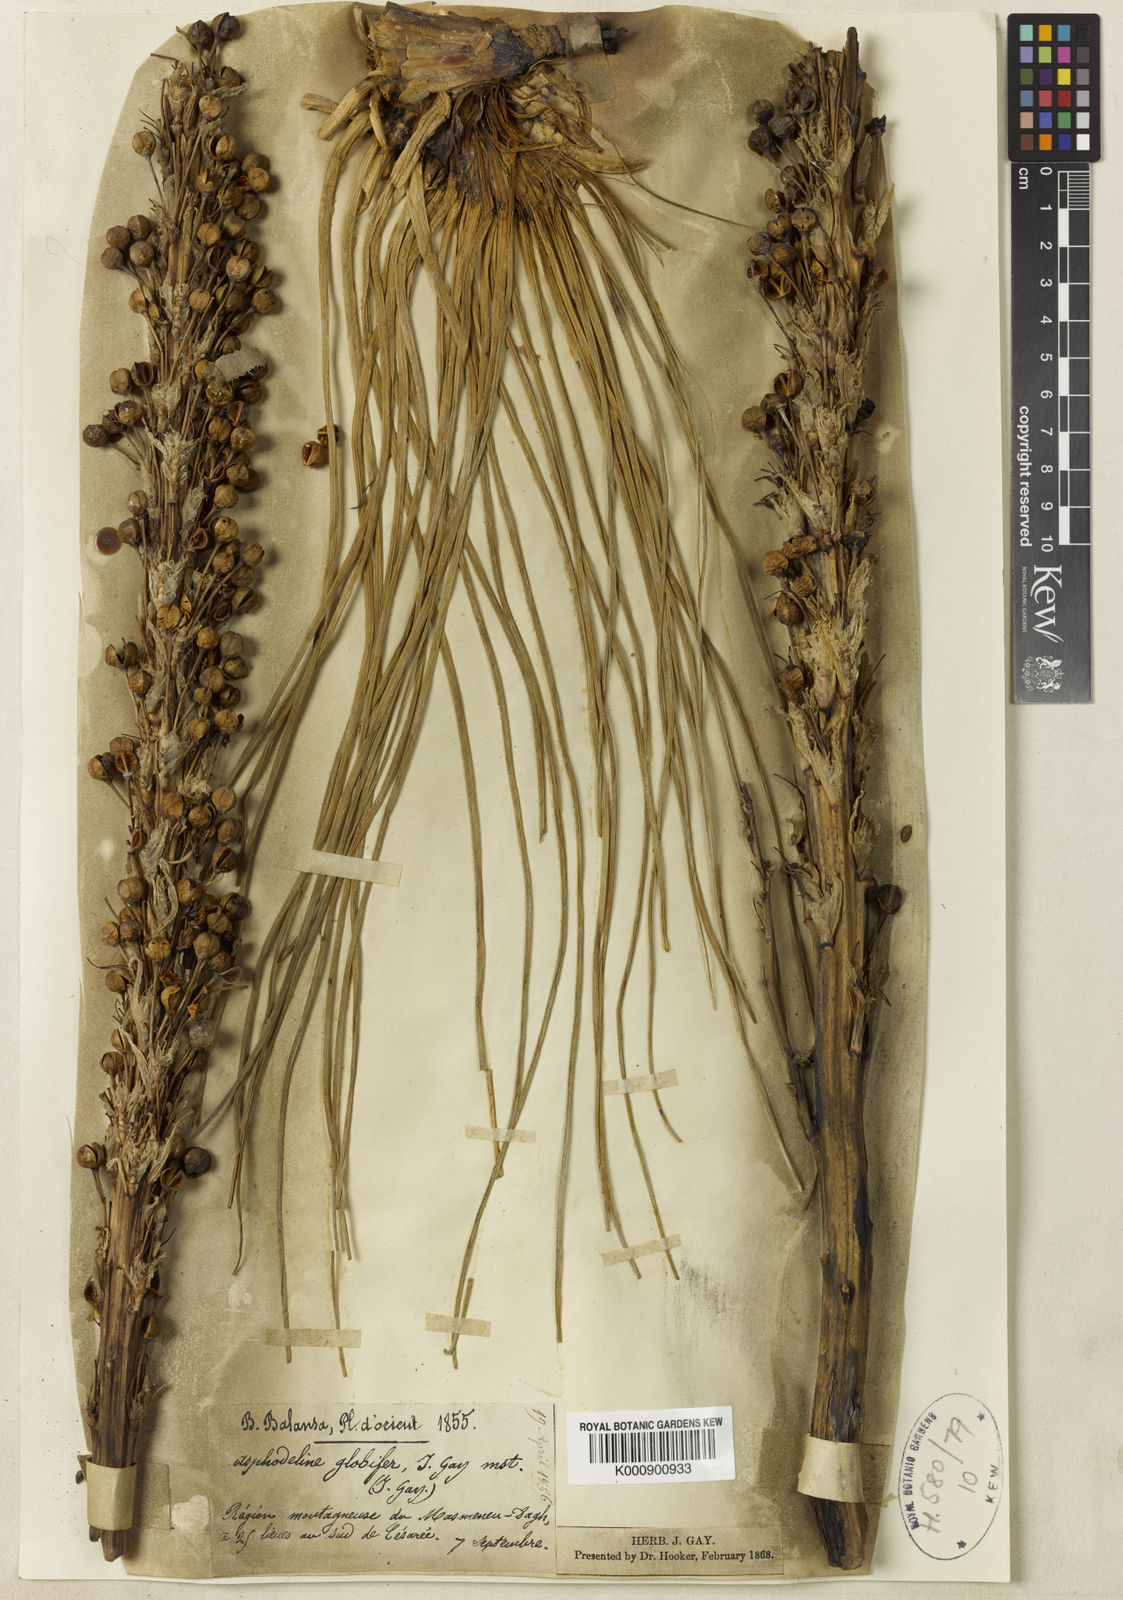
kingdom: Plantae
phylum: Tracheophyta
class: Liliopsida
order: Asparagales
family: Asphodelaceae
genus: Asphodeline
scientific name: Asphodeline globifera
